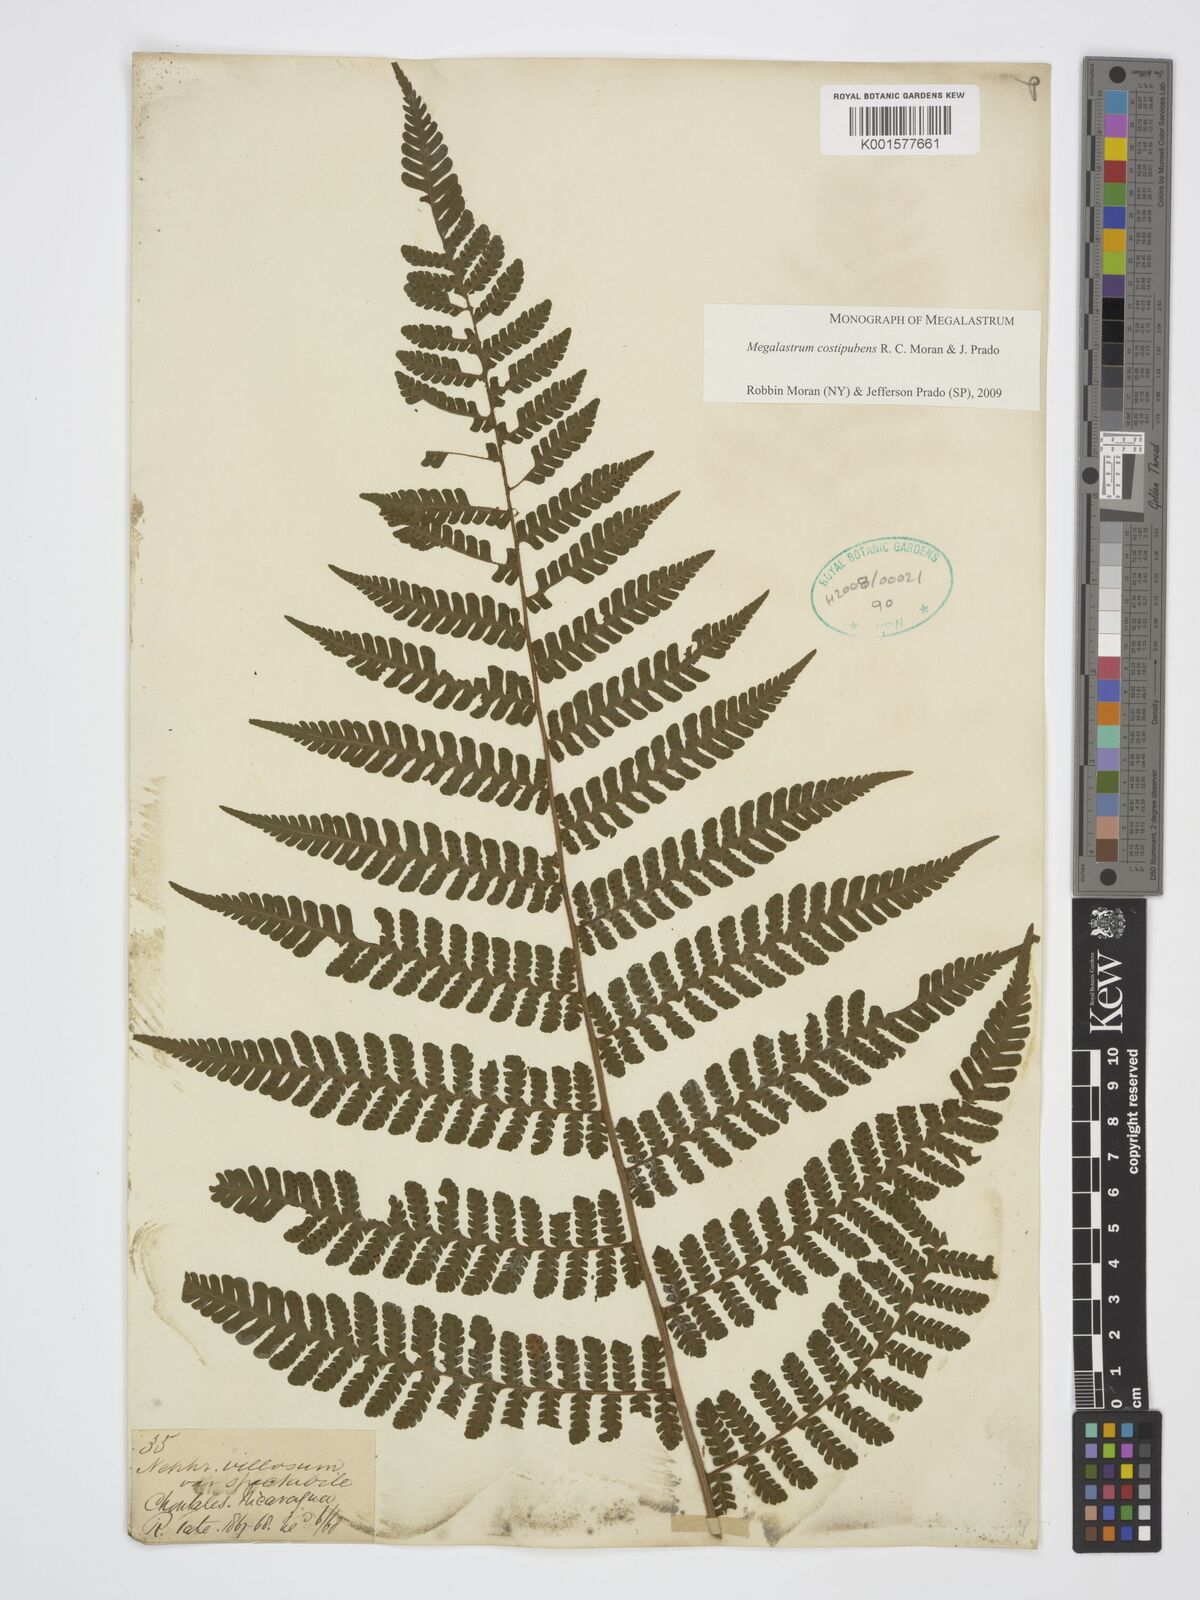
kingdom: Plantae
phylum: Tracheophyta
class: Polypodiopsida
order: Polypodiales
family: Dryopteridaceae
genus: Megalastrum
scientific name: Megalastrum costipubens
